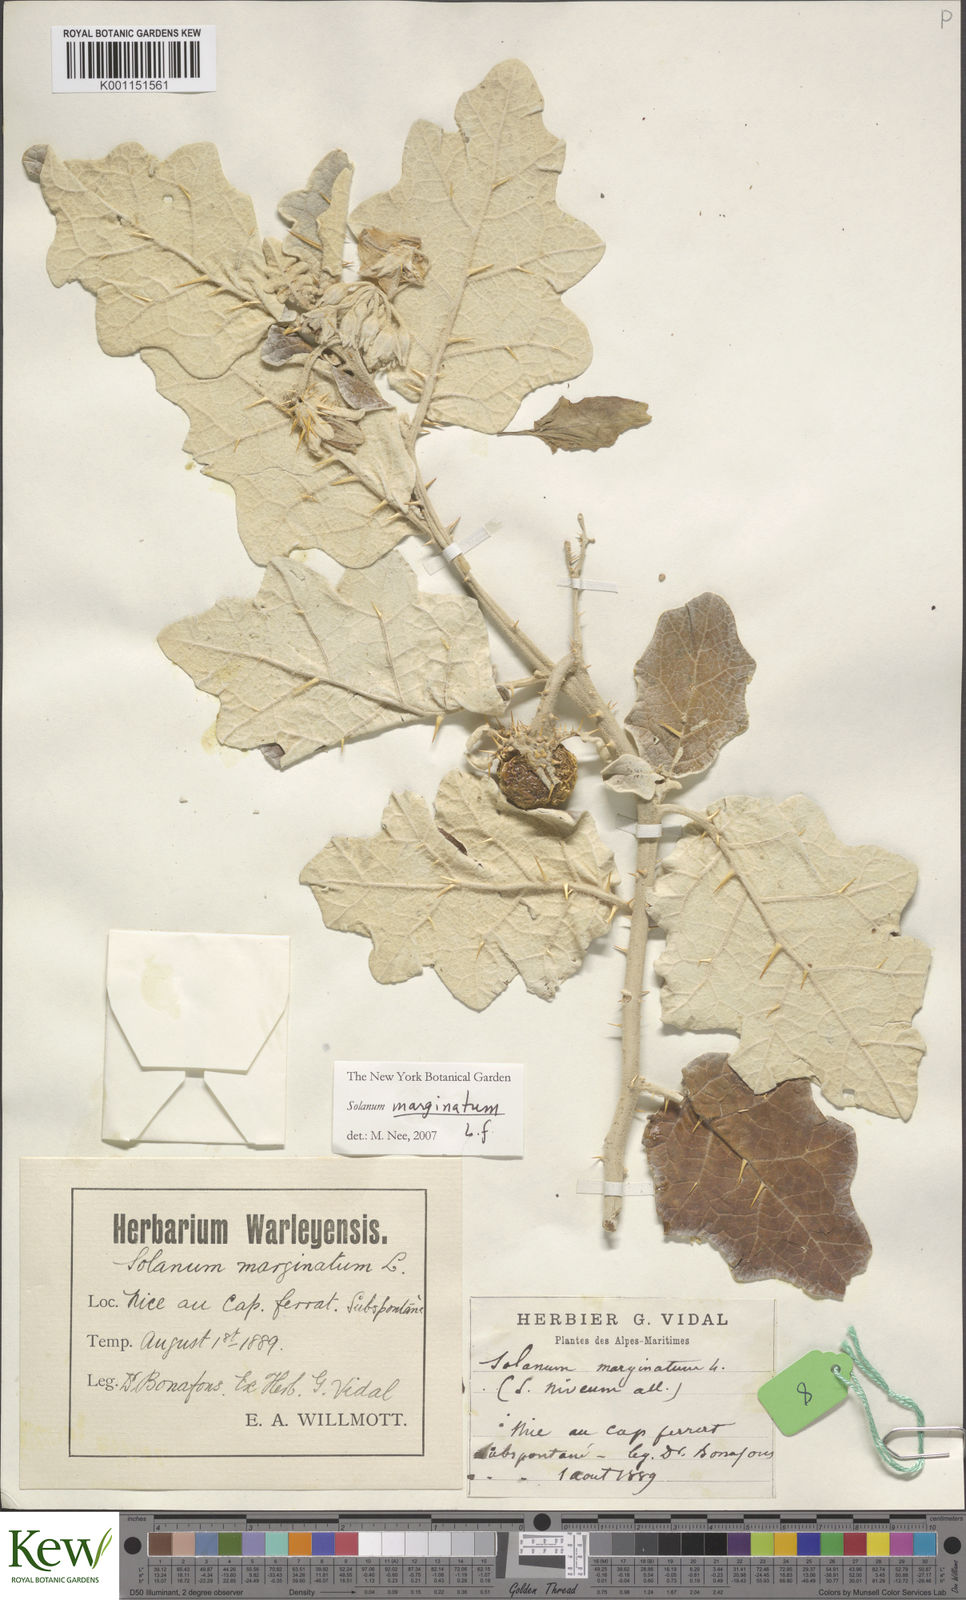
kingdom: Plantae
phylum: Tracheophyta
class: Magnoliopsida
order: Solanales
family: Solanaceae
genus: Solanum
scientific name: Solanum marginatum
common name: Purple african nightshade
